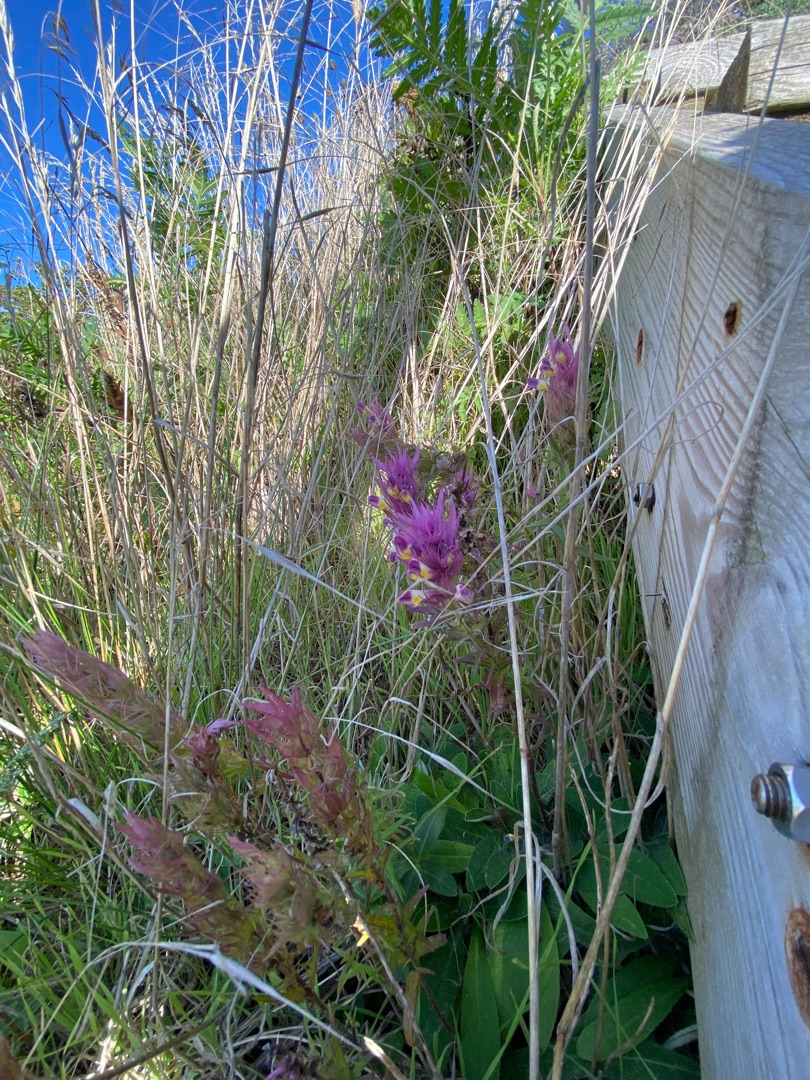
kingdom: Plantae
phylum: Tracheophyta
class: Magnoliopsida
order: Lamiales
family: Orobanchaceae
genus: Melampyrum
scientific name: Melampyrum arvense
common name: Ager-kohvede
